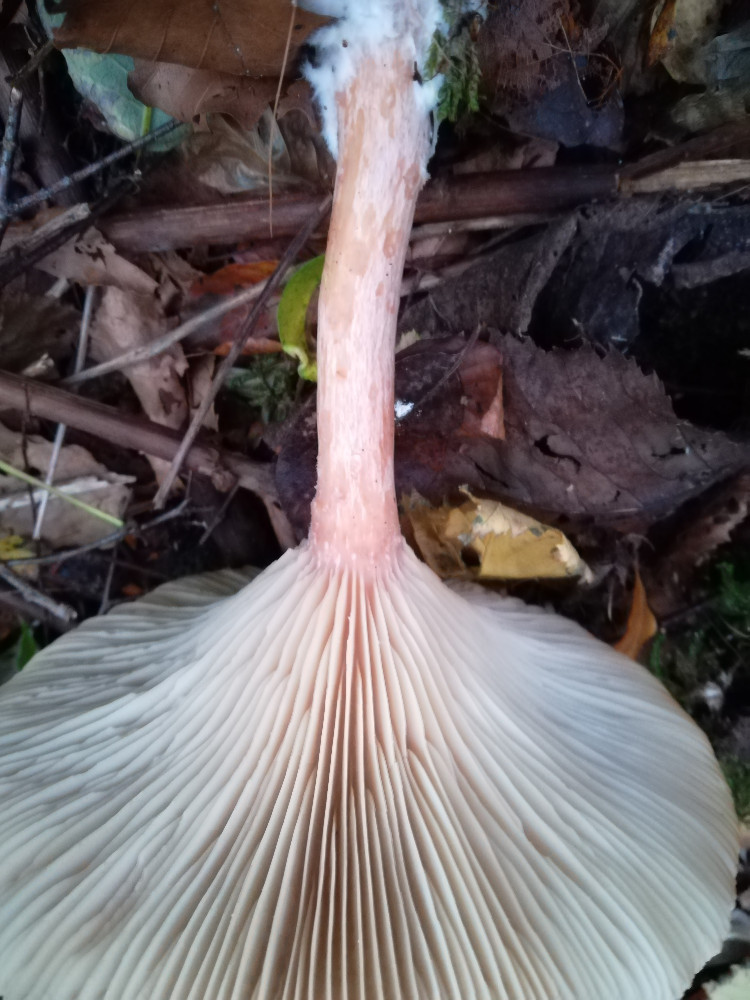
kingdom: Fungi
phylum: Basidiomycota
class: Agaricomycetes
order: Agaricales
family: Tricholomataceae
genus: Infundibulicybe
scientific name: Infundibulicybe geotropa
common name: stor tragthat
